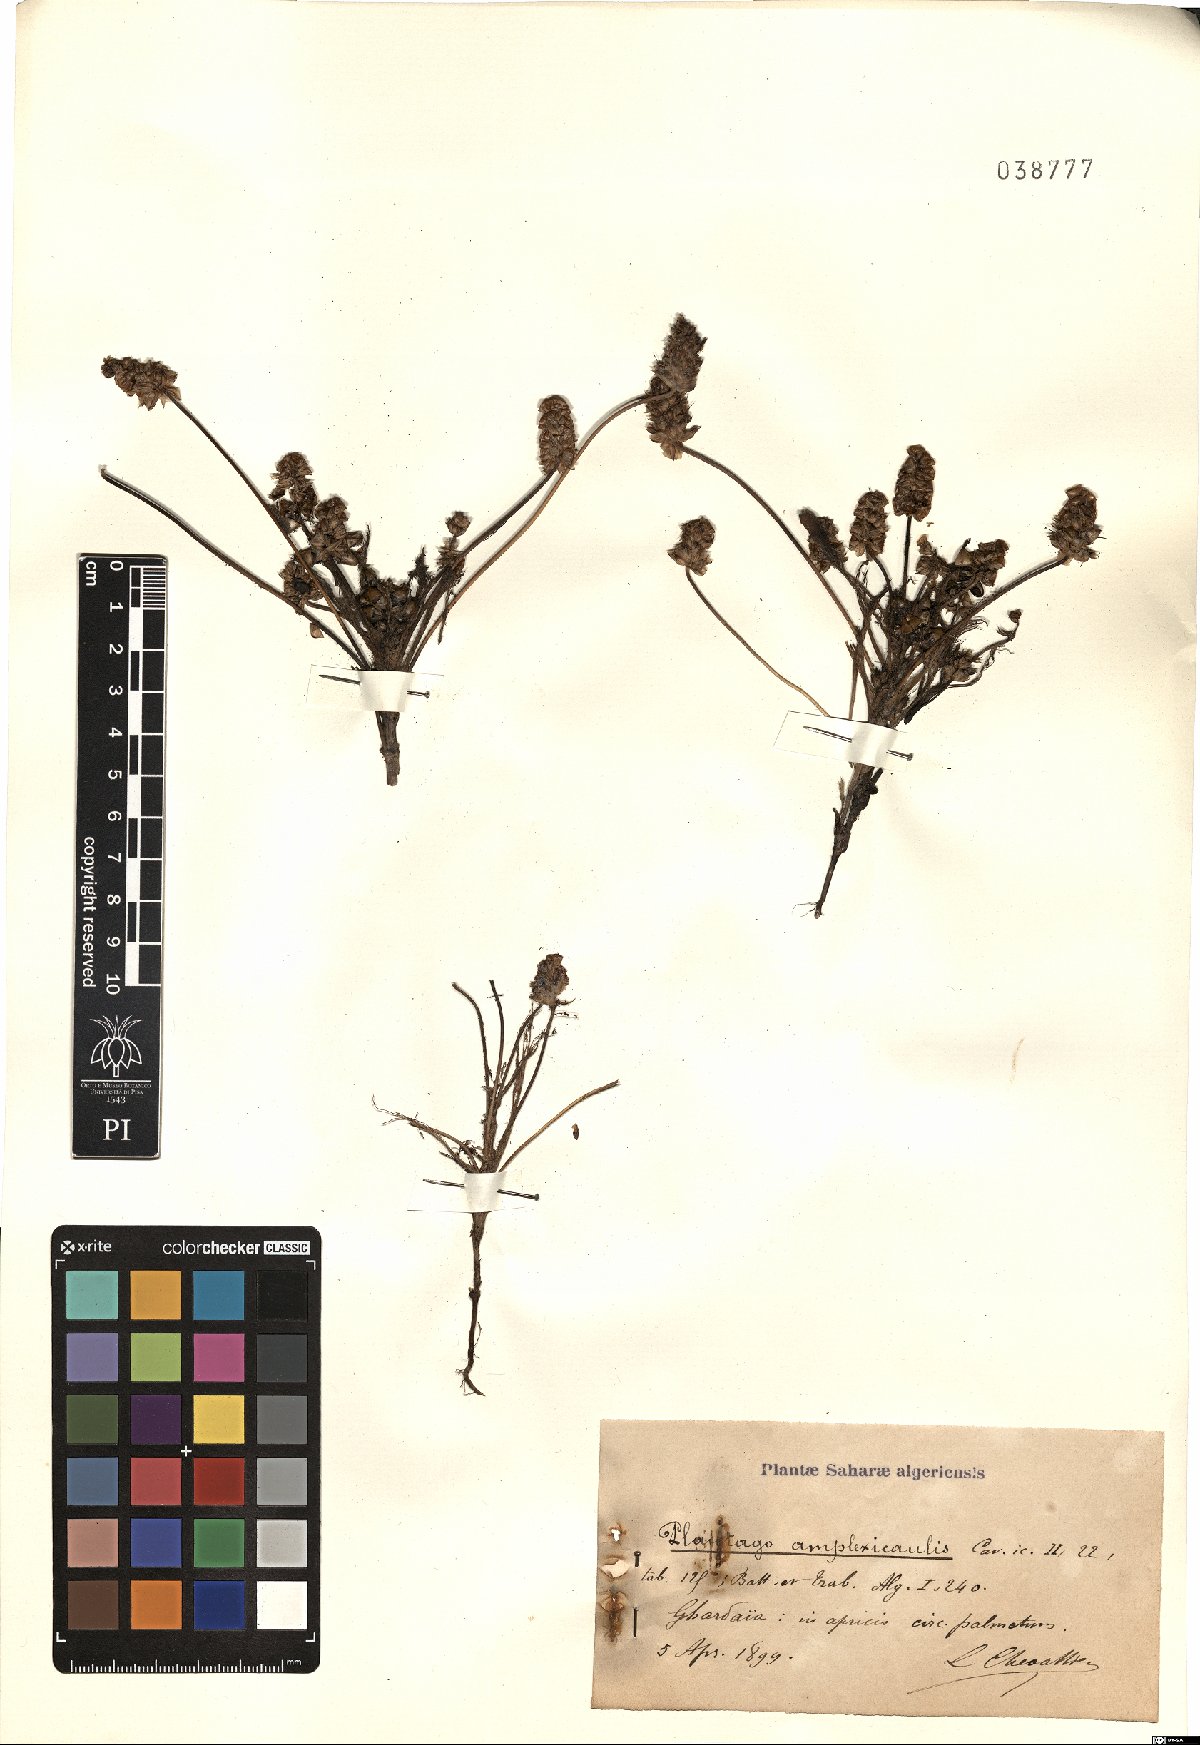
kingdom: Plantae
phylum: Tracheophyta
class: Magnoliopsida
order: Lamiales
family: Plantaginaceae
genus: Plantago
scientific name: Plantago amplexicaulis
